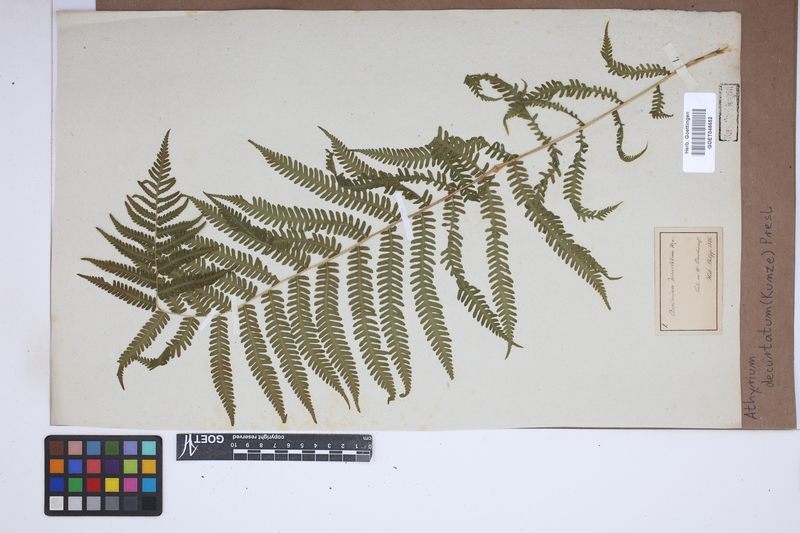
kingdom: Plantae
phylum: Tracheophyta
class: Polypodiopsida
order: Polypodiales
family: Thelypteridaceae
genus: Amauropelta
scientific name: Amauropelta decurtata
